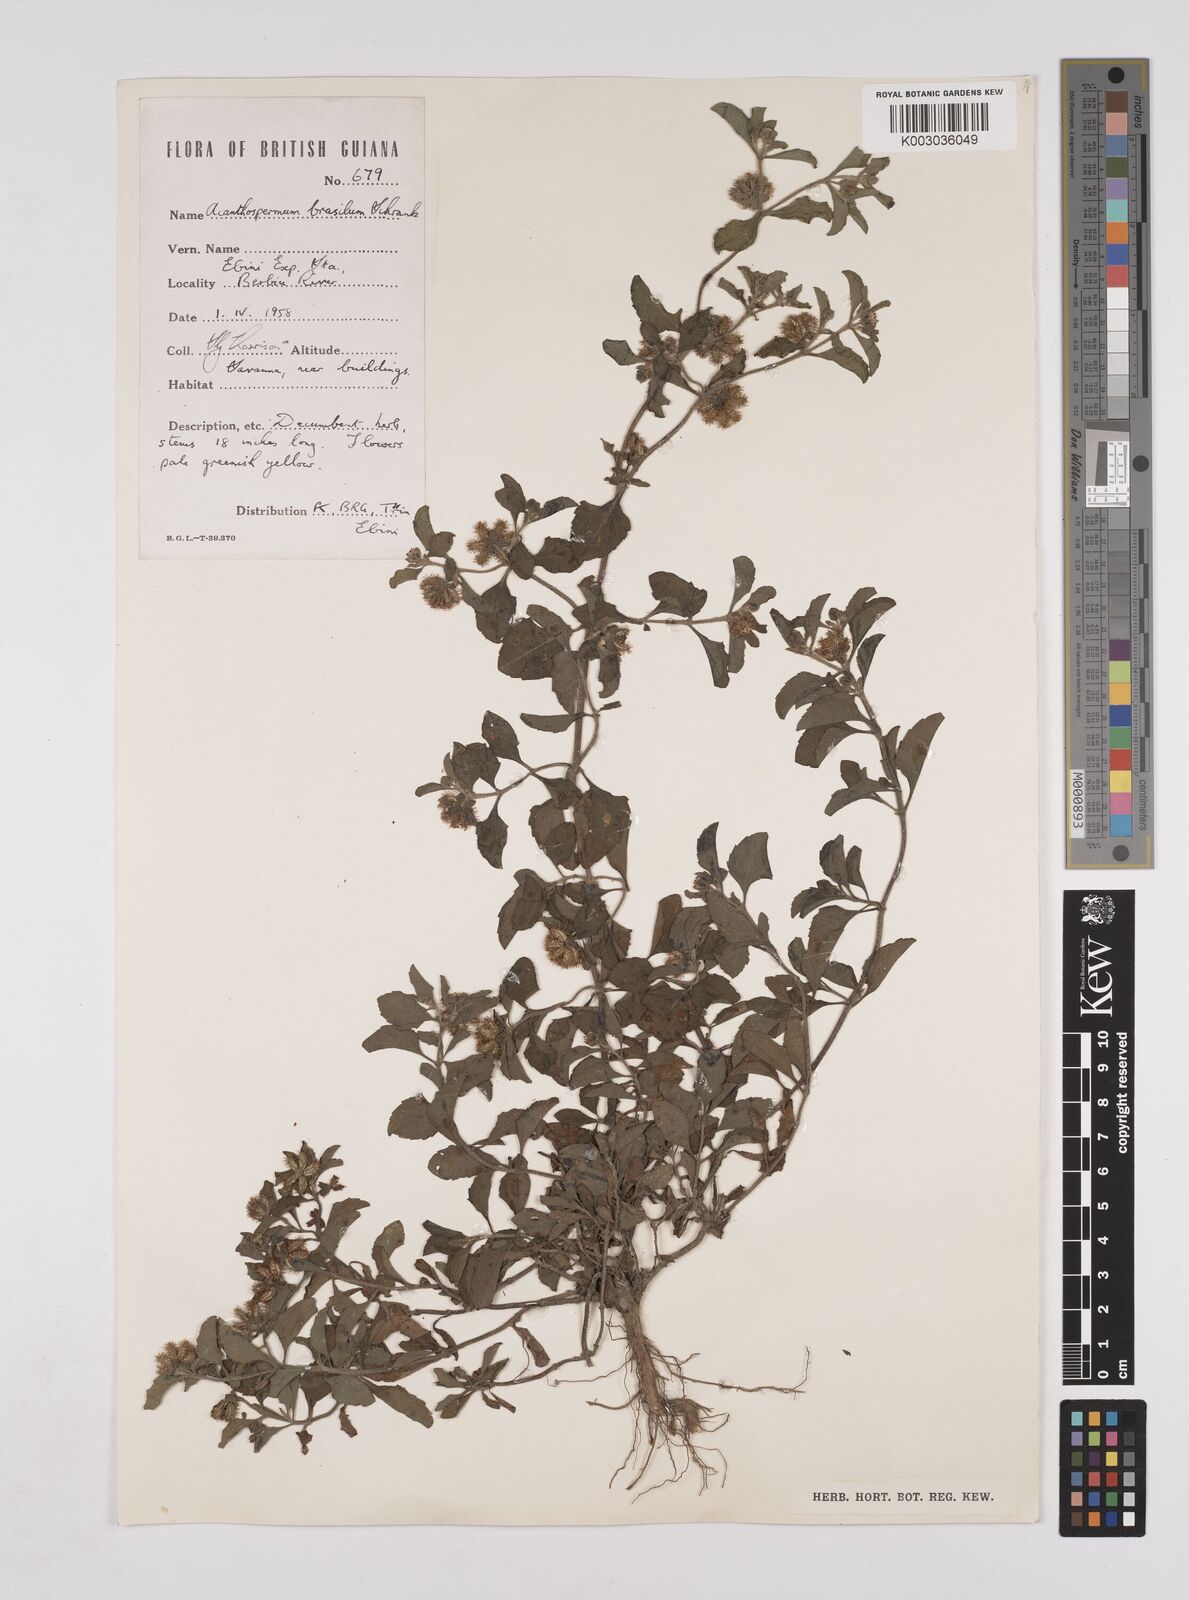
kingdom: Plantae
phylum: Tracheophyta
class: Magnoliopsida
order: Asterales
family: Asteraceae
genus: Acanthospermum
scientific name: Acanthospermum australe
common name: Paraguayan starbur
